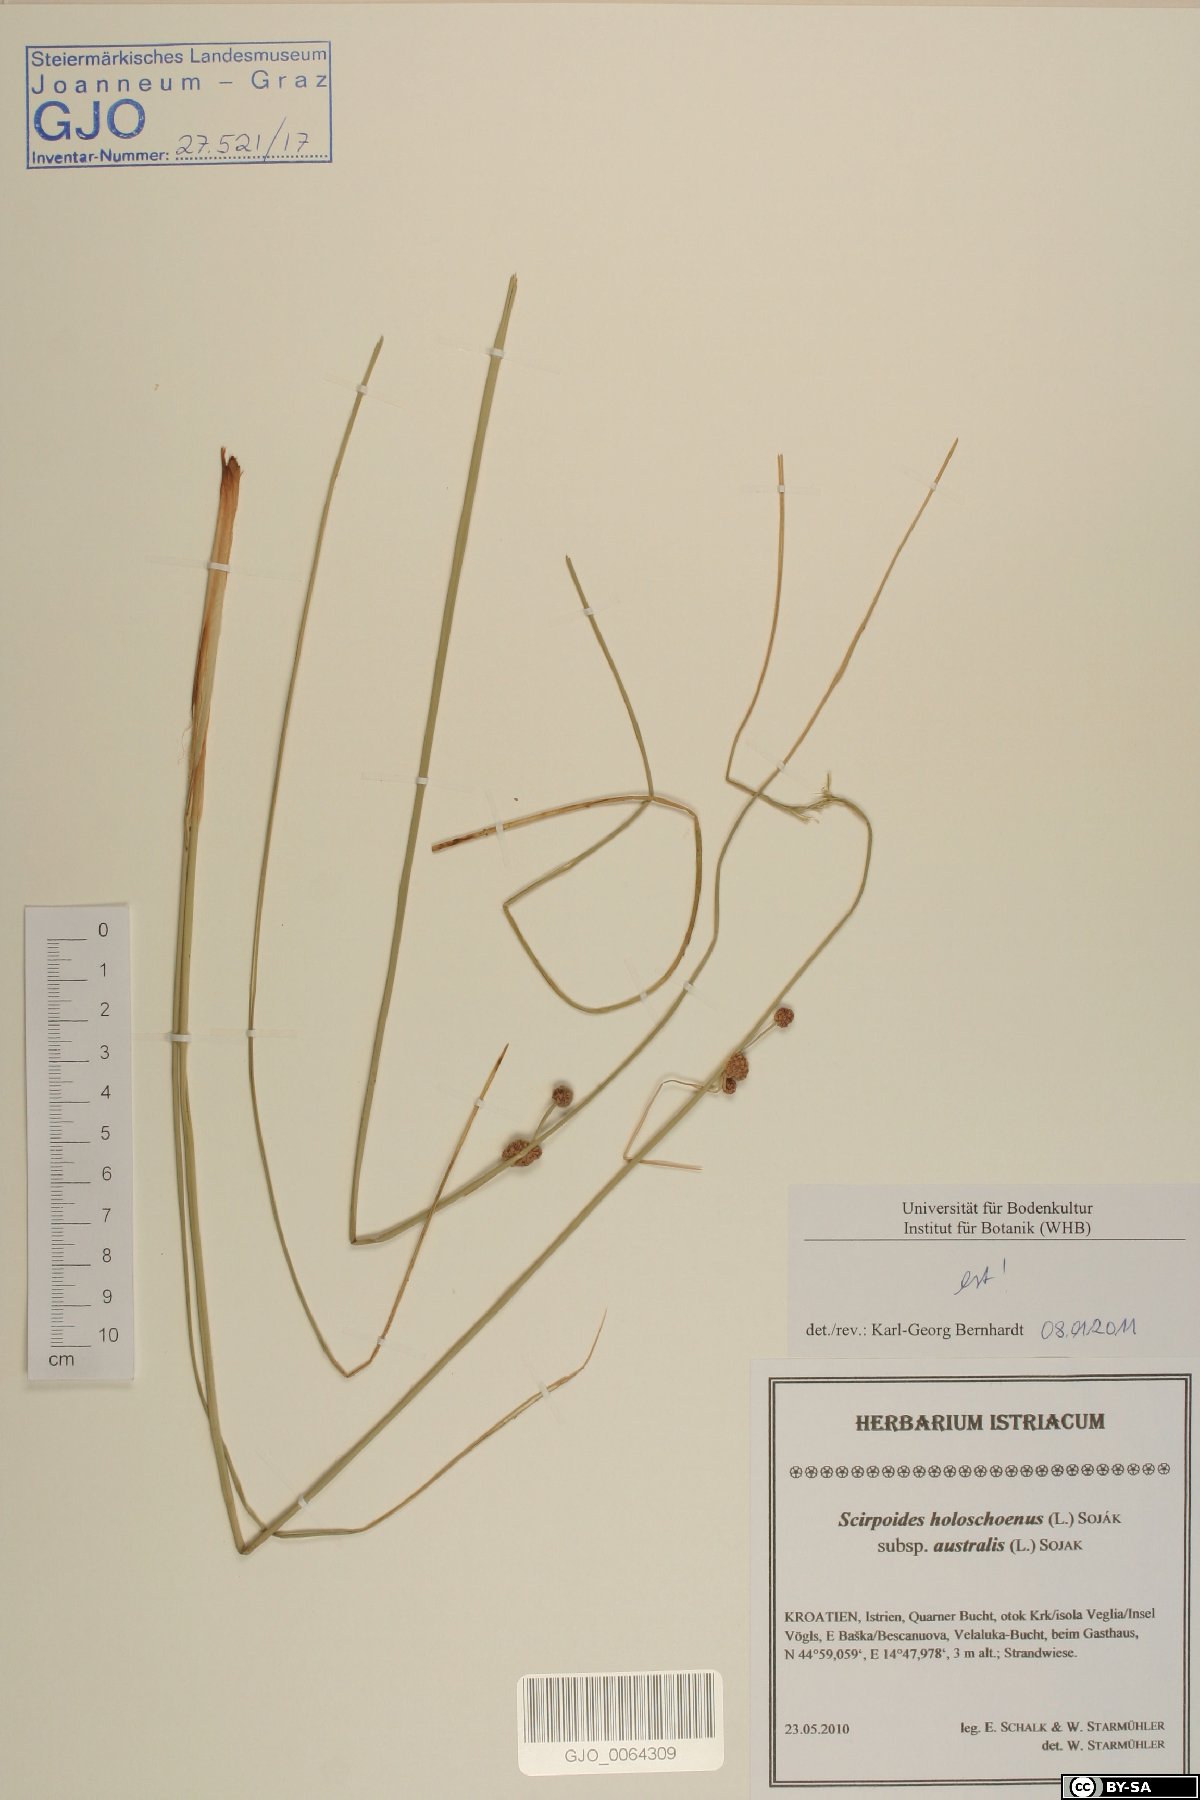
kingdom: Plantae
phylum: Tracheophyta
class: Liliopsida
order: Poales
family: Cyperaceae
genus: Scirpoides
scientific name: Scirpoides holoschoenus
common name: Round-headed club-rush
